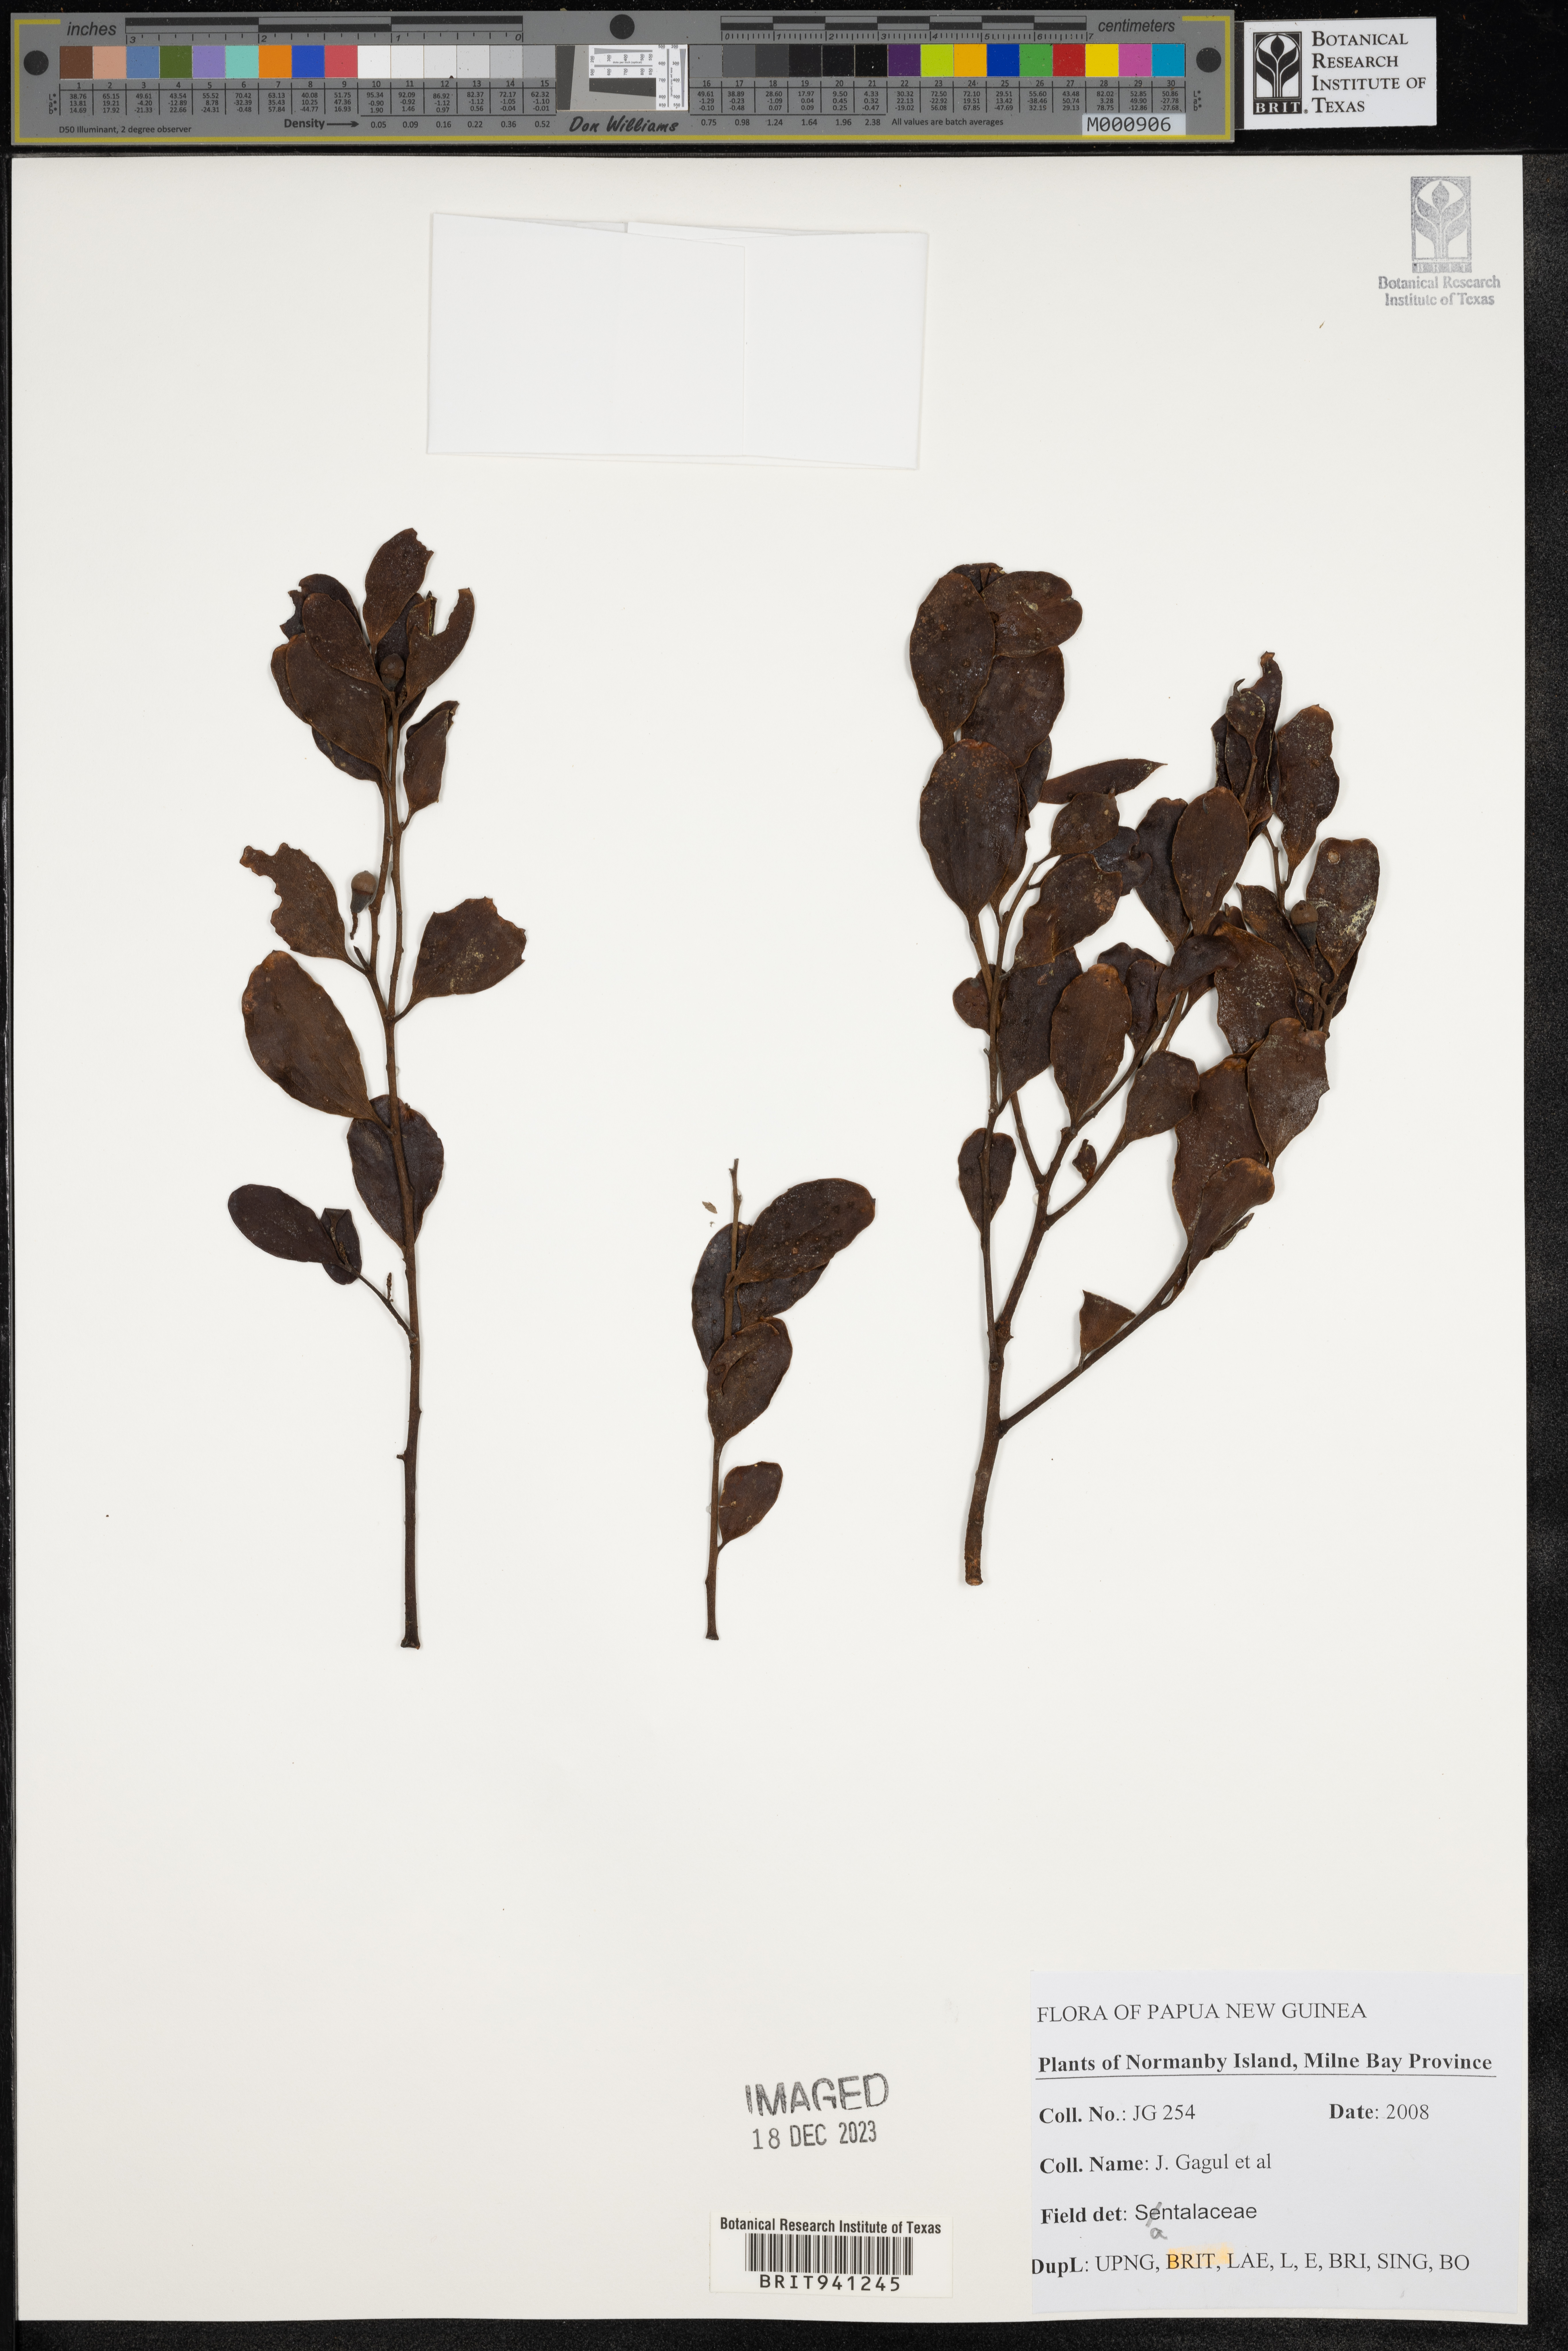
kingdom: Plantae
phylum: Tracheophyta
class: Magnoliopsida
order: Santalales
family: Santalaceae
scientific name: Santalaceae
